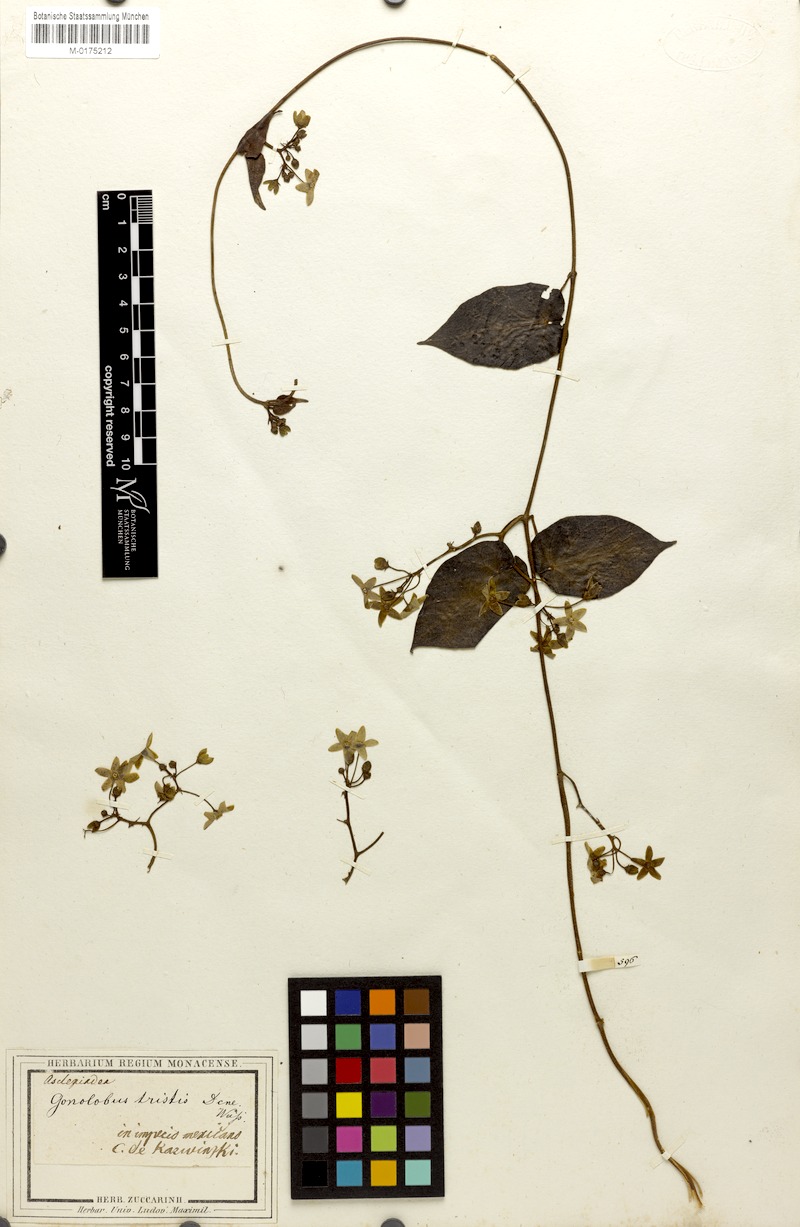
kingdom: Plantae
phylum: Tracheophyta
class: Magnoliopsida
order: Gentianales
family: Apocynaceae
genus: Matelea
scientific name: Matelea oaxacana
